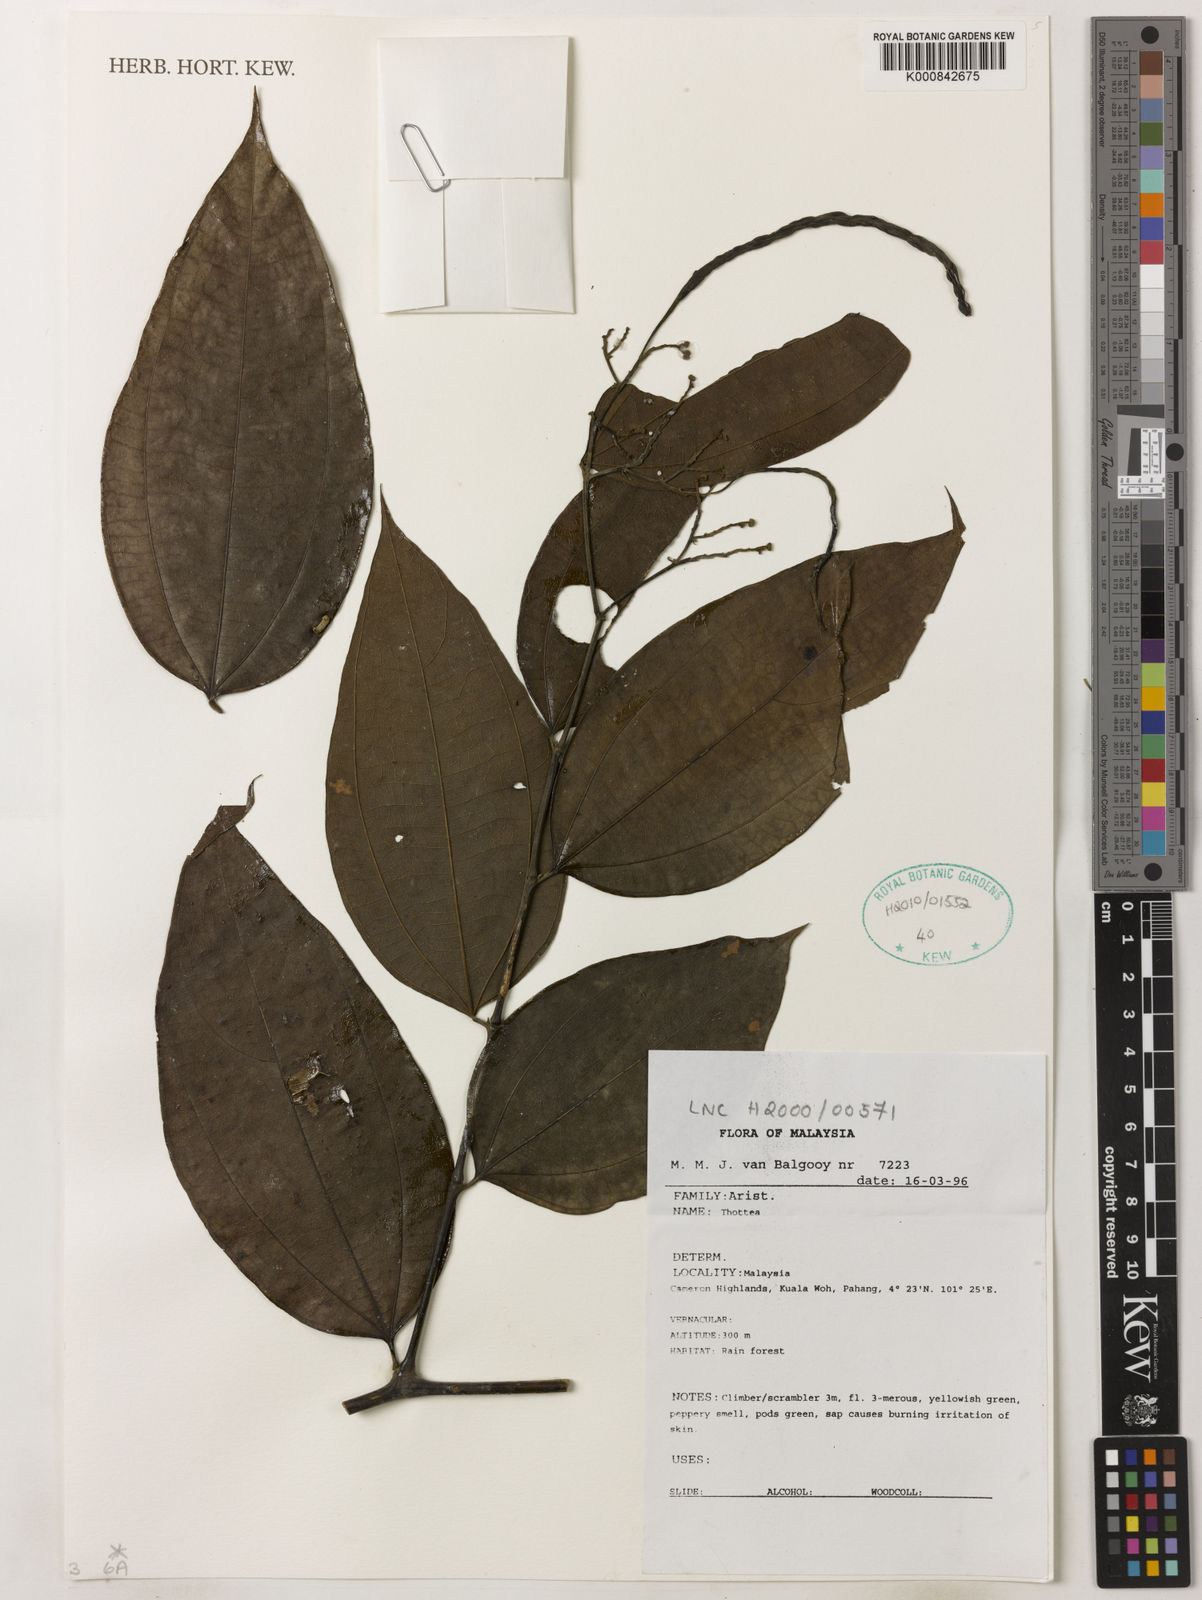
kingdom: Plantae
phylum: Tracheophyta
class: Magnoliopsida
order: Piperales
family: Aristolochiaceae
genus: Thottea
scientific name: Thottea piperiformis
